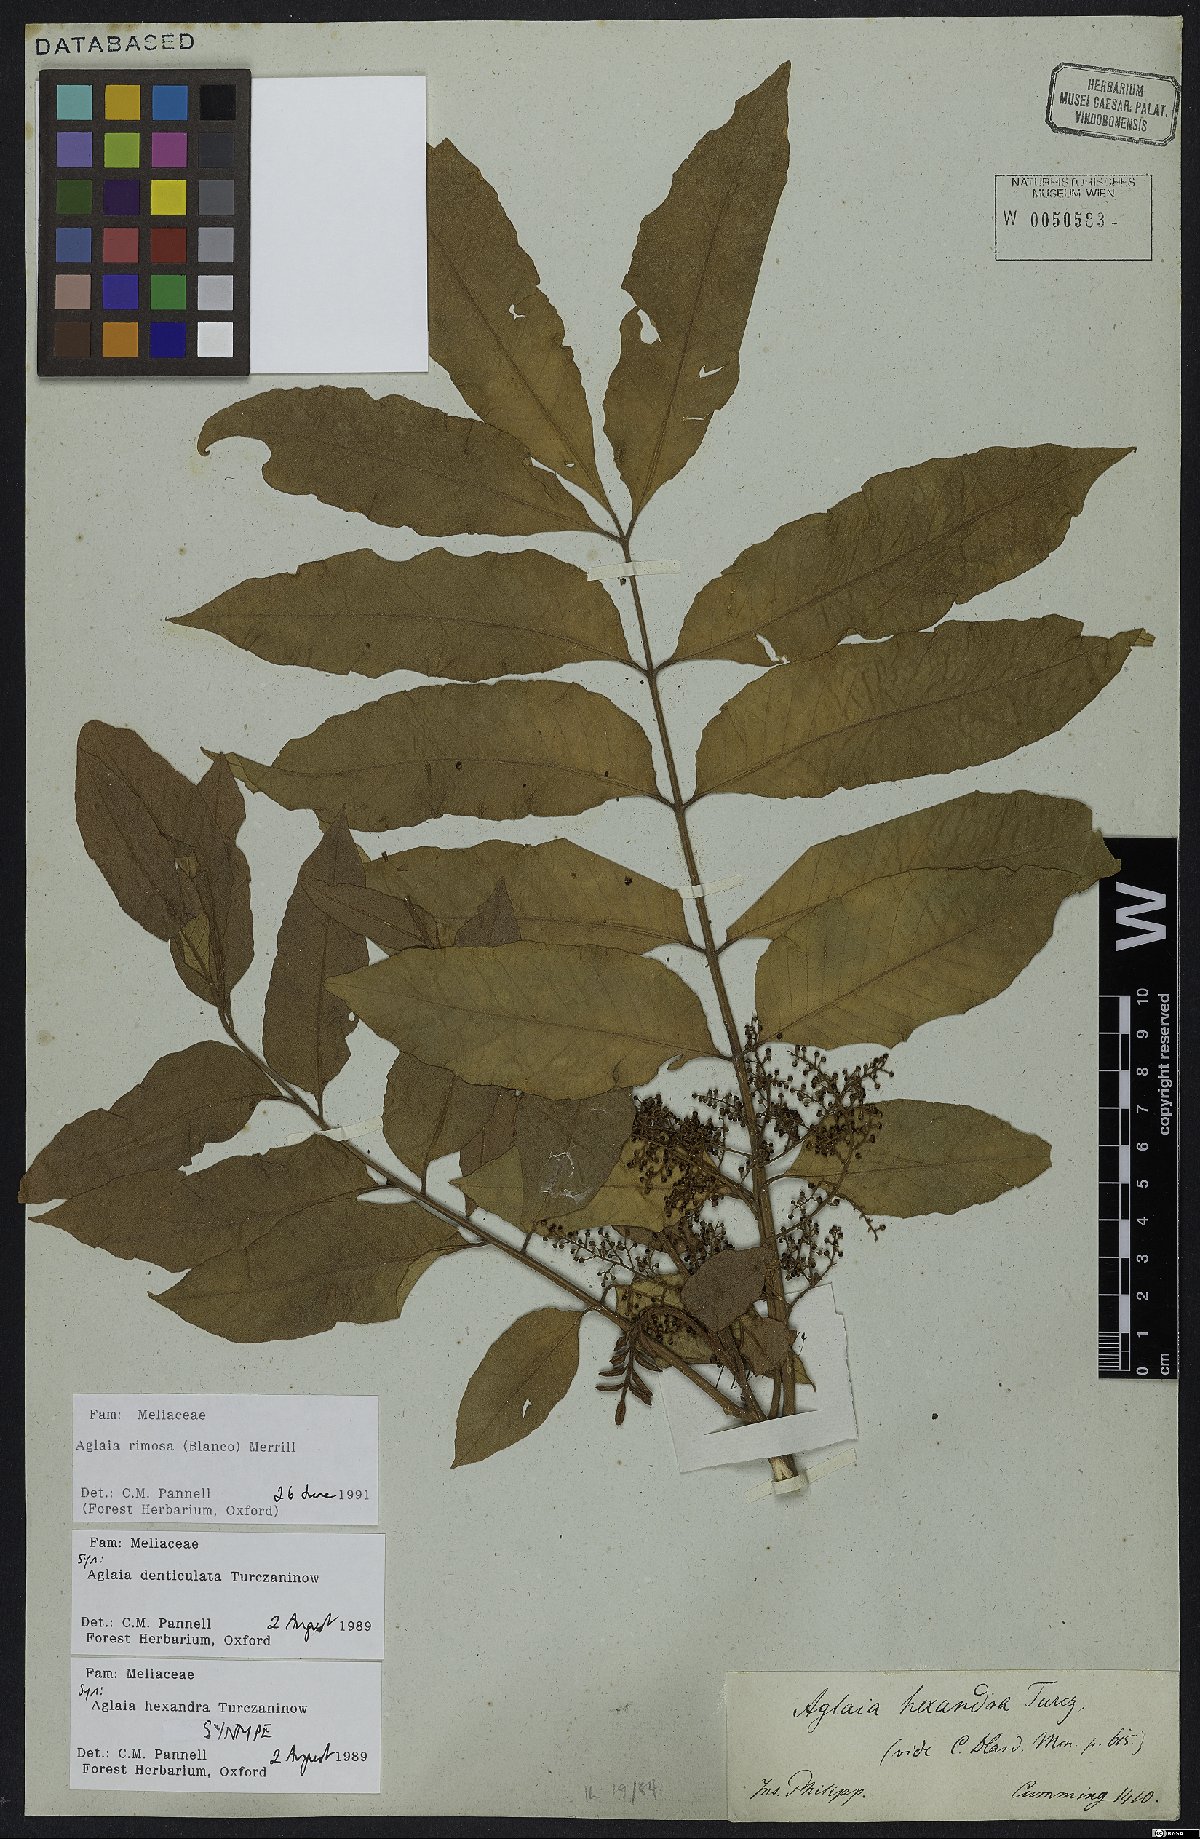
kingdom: Plantae
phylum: Tracheophyta
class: Magnoliopsida
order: Sapindales
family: Meliaceae
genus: Aglaia
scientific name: Aglaia rimosa
